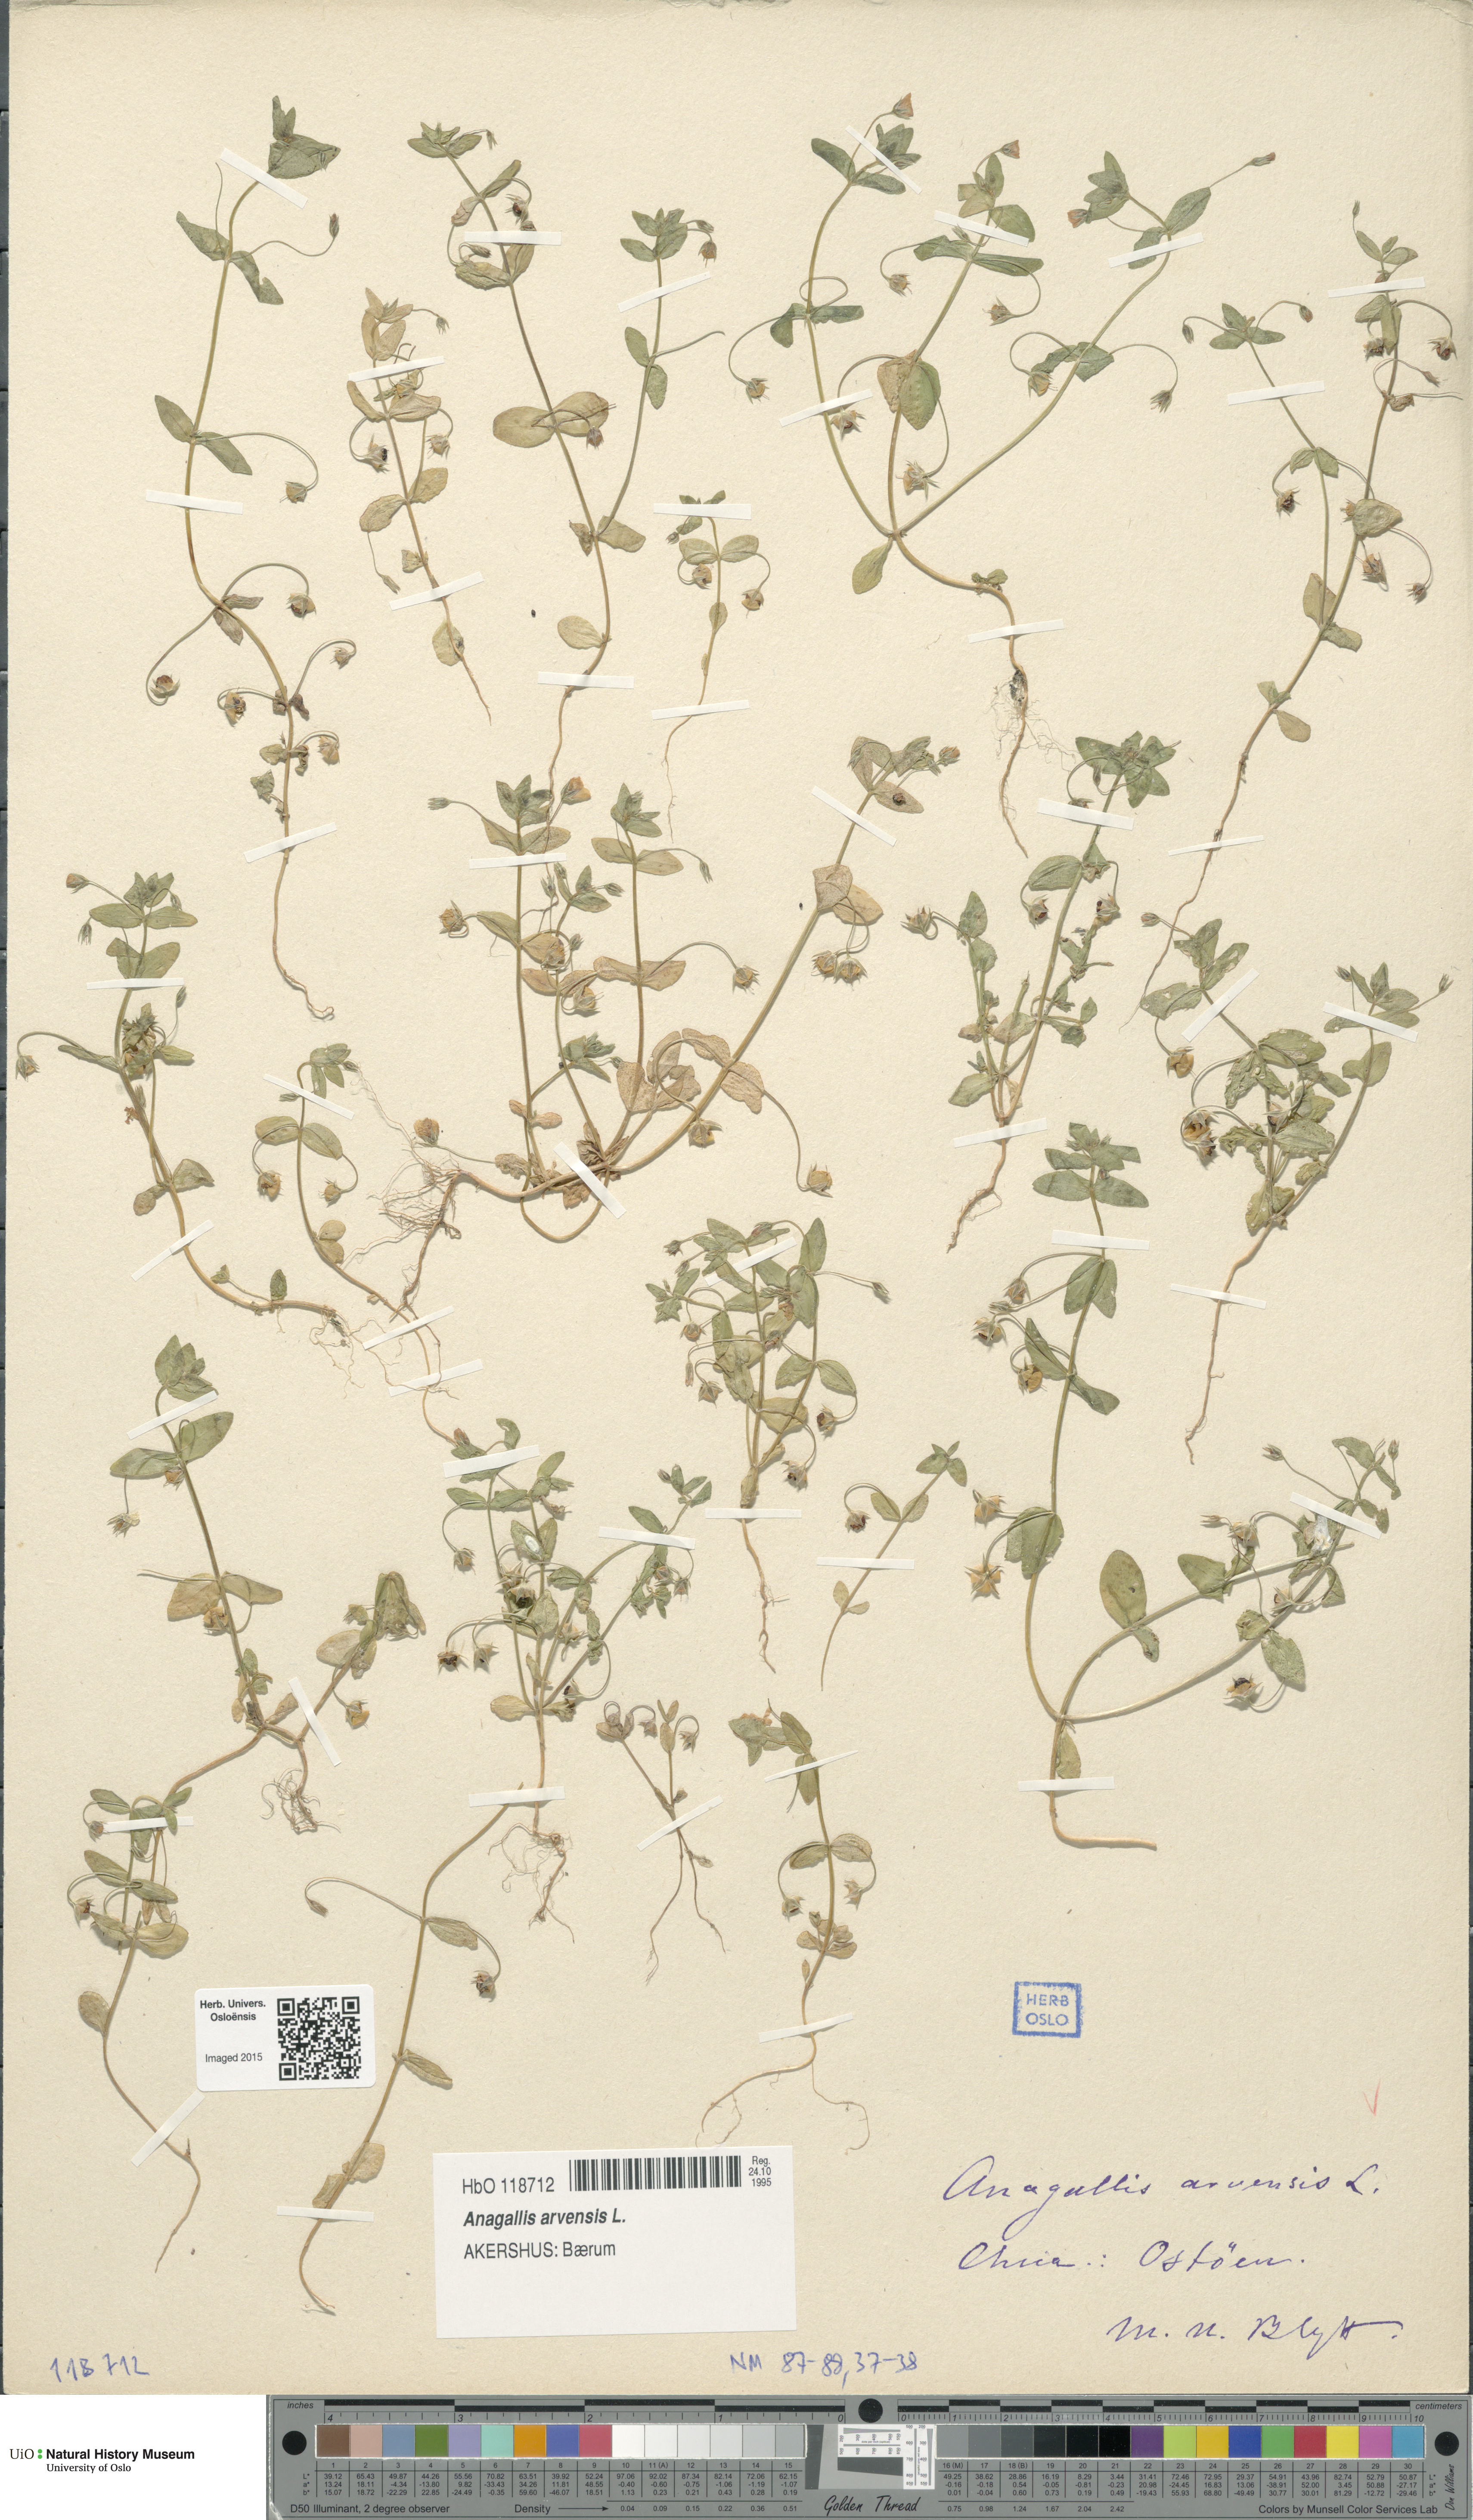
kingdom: Plantae
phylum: Tracheophyta
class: Magnoliopsida
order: Ericales
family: Primulaceae
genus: Lysimachia
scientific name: Lysimachia arvensis
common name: Scarlet pimpernel
